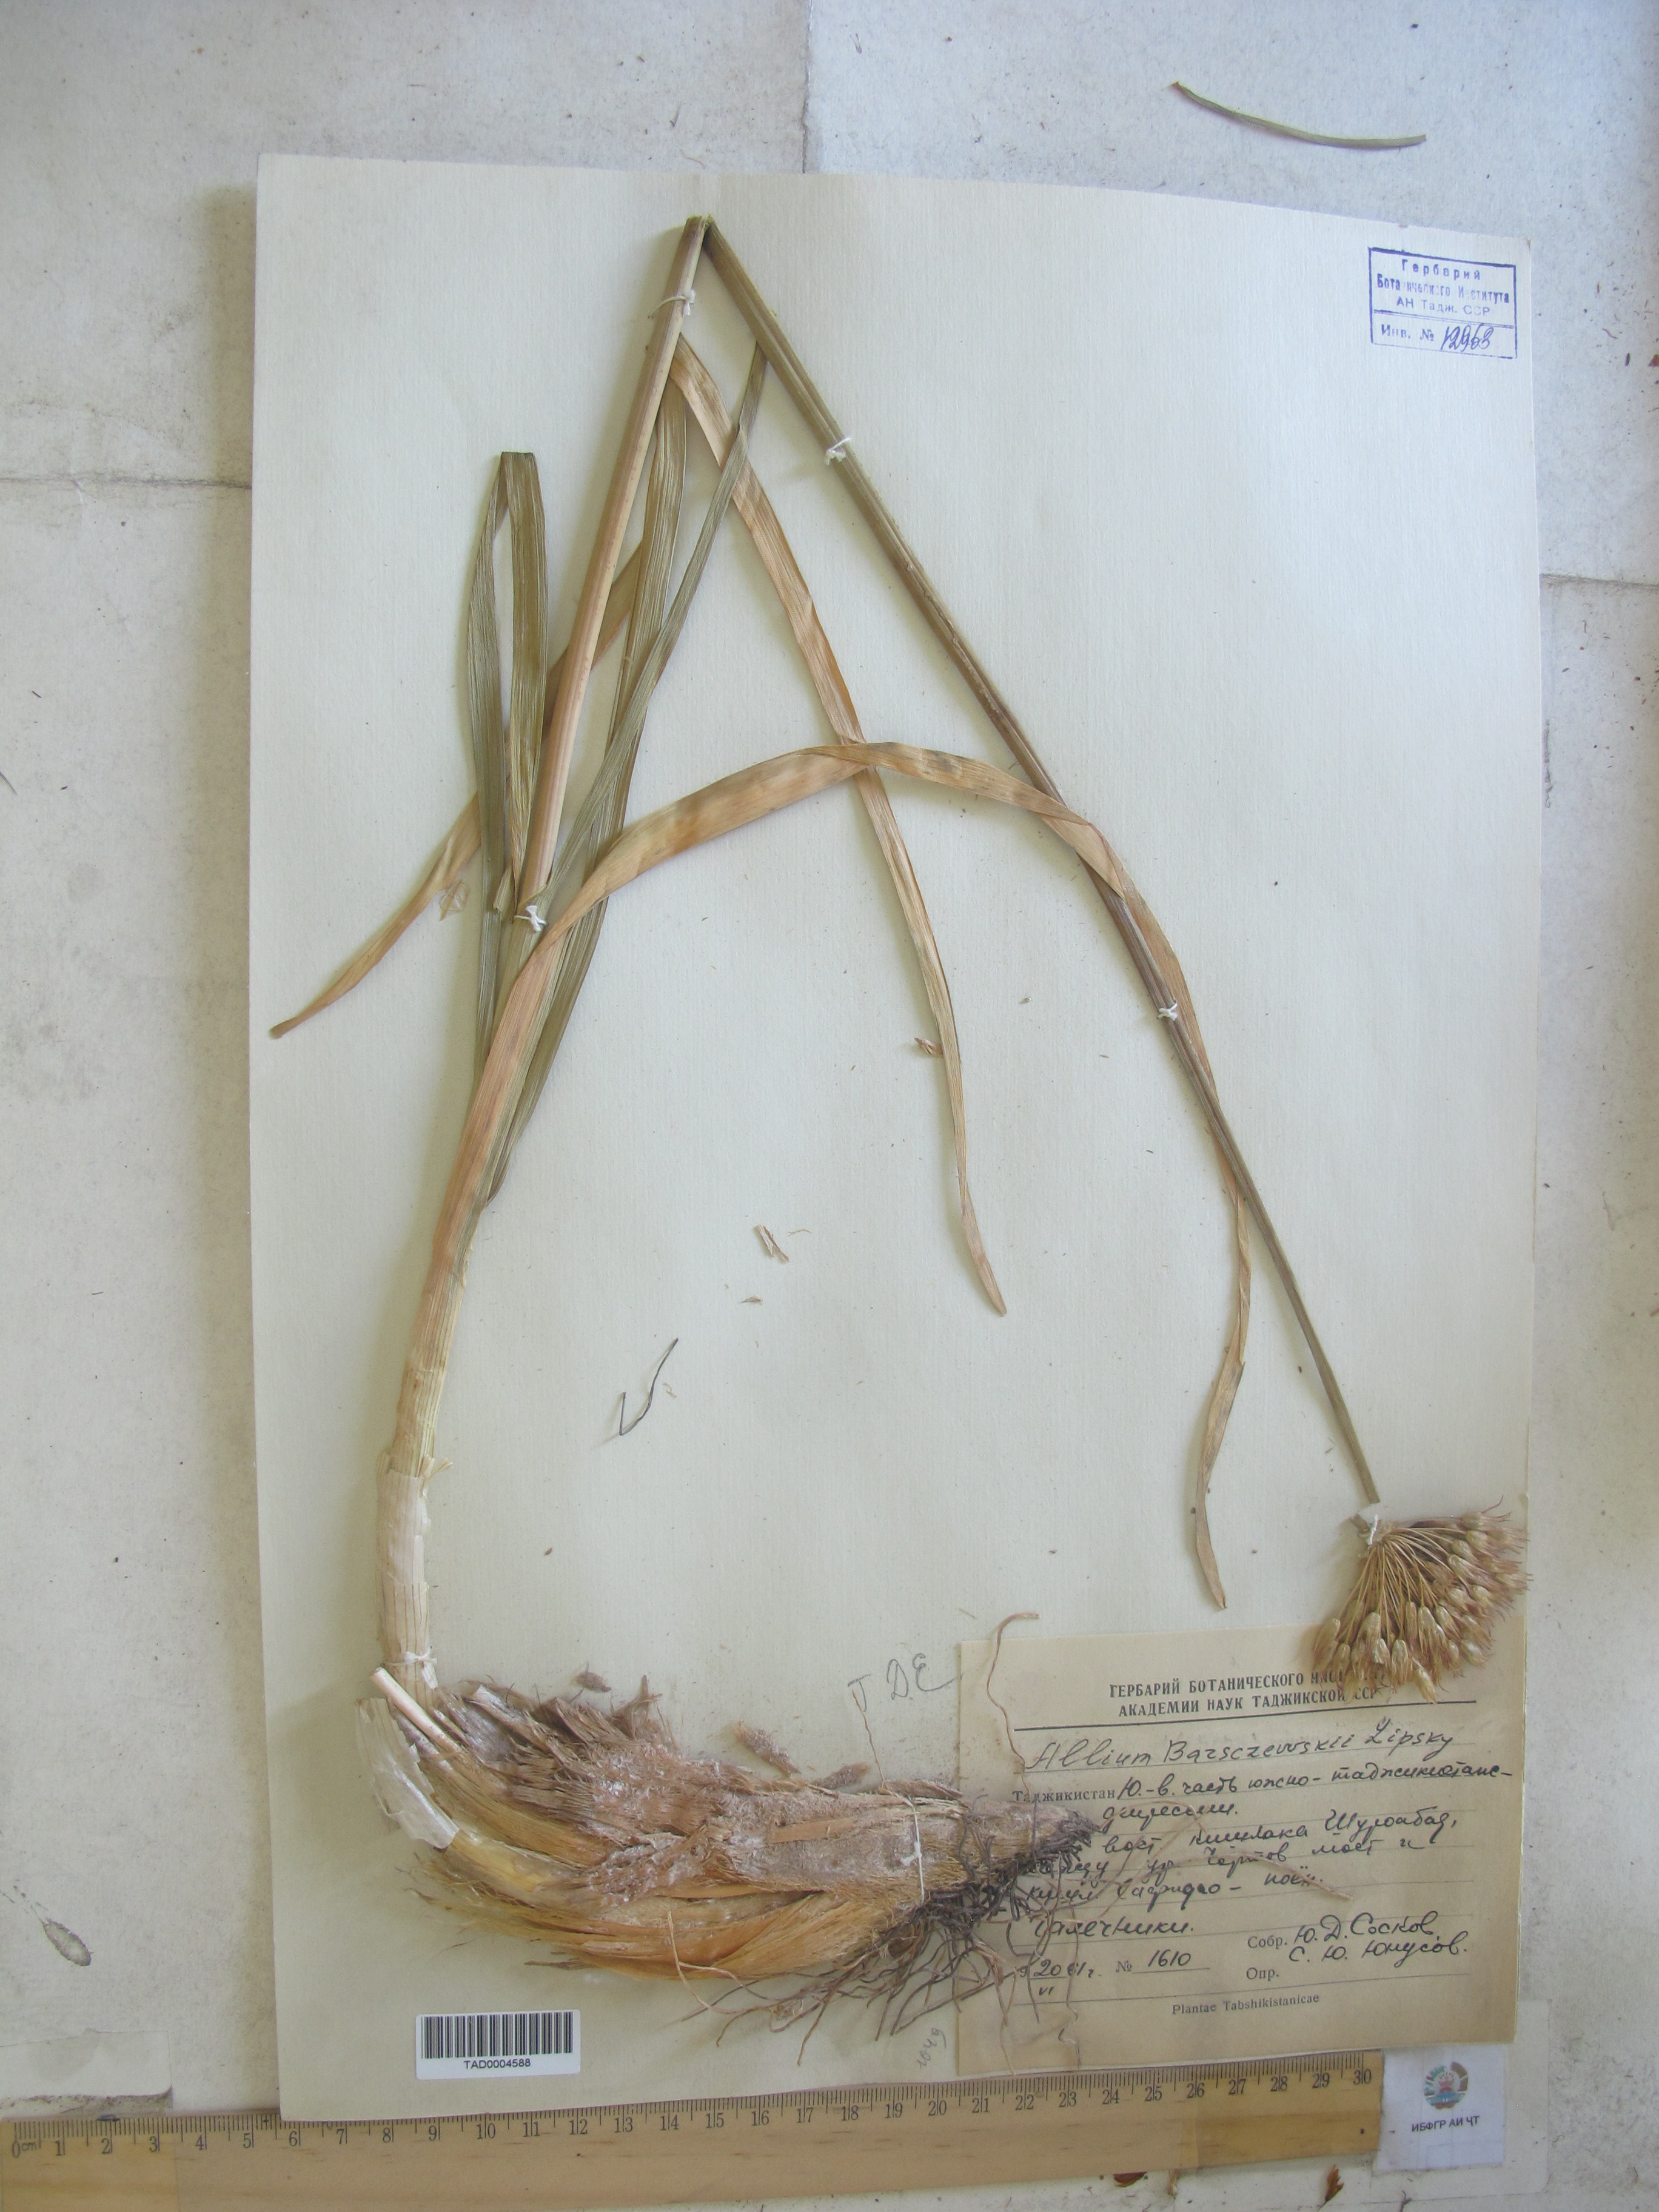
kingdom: Plantae
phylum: Tracheophyta
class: Liliopsida
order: Asparagales
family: Amaryllidaceae
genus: Allium
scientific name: Allium barsczewskii
